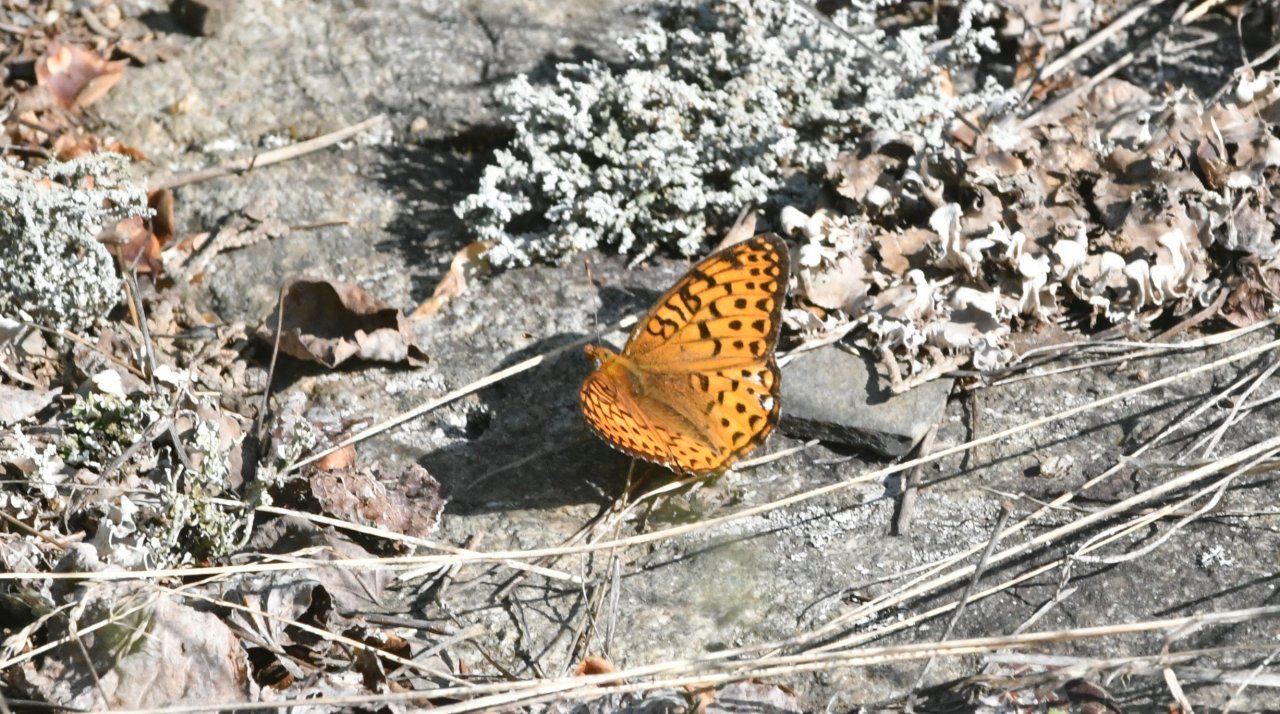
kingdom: Animalia
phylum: Arthropoda
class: Insecta
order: Lepidoptera
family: Nymphalidae
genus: Speyeria
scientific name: Speyeria atlantis
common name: Atlantis Fritillary
